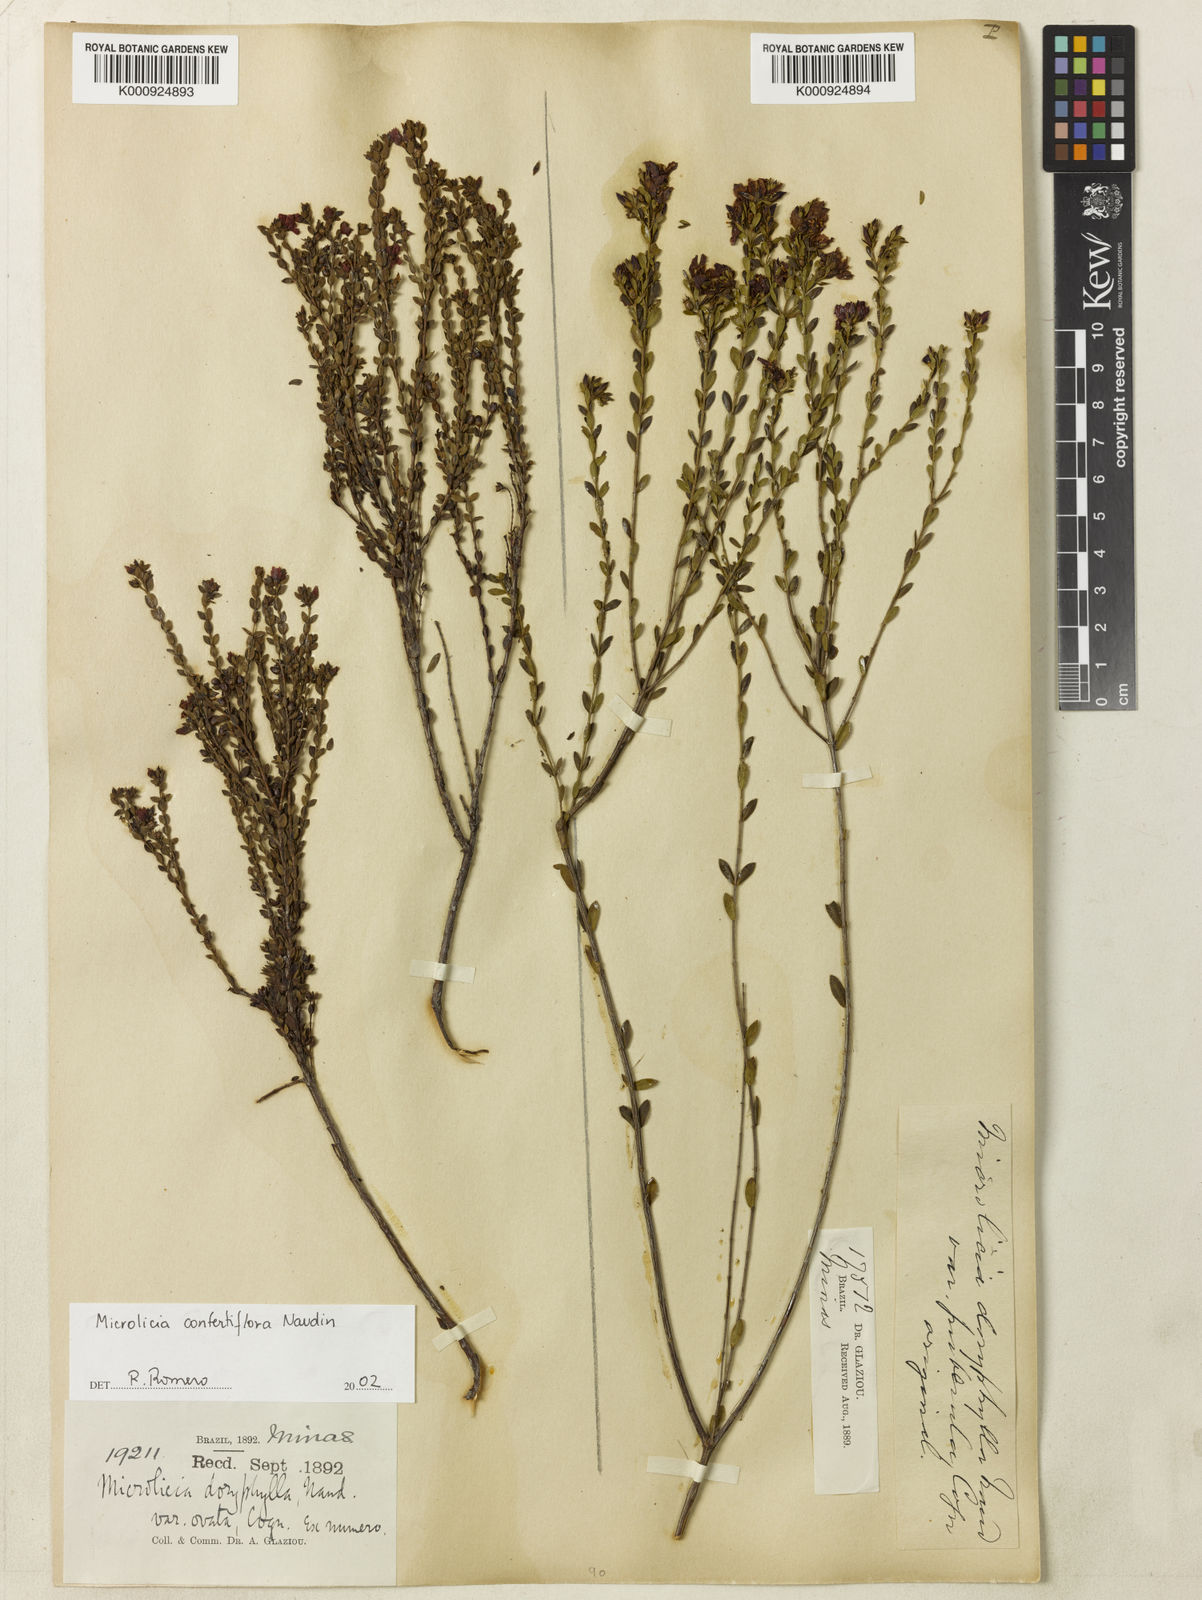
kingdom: Plantae
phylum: Tracheophyta
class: Magnoliopsida
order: Myrtales
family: Melastomataceae
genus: Microlicia
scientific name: Microlicia confertiflora
